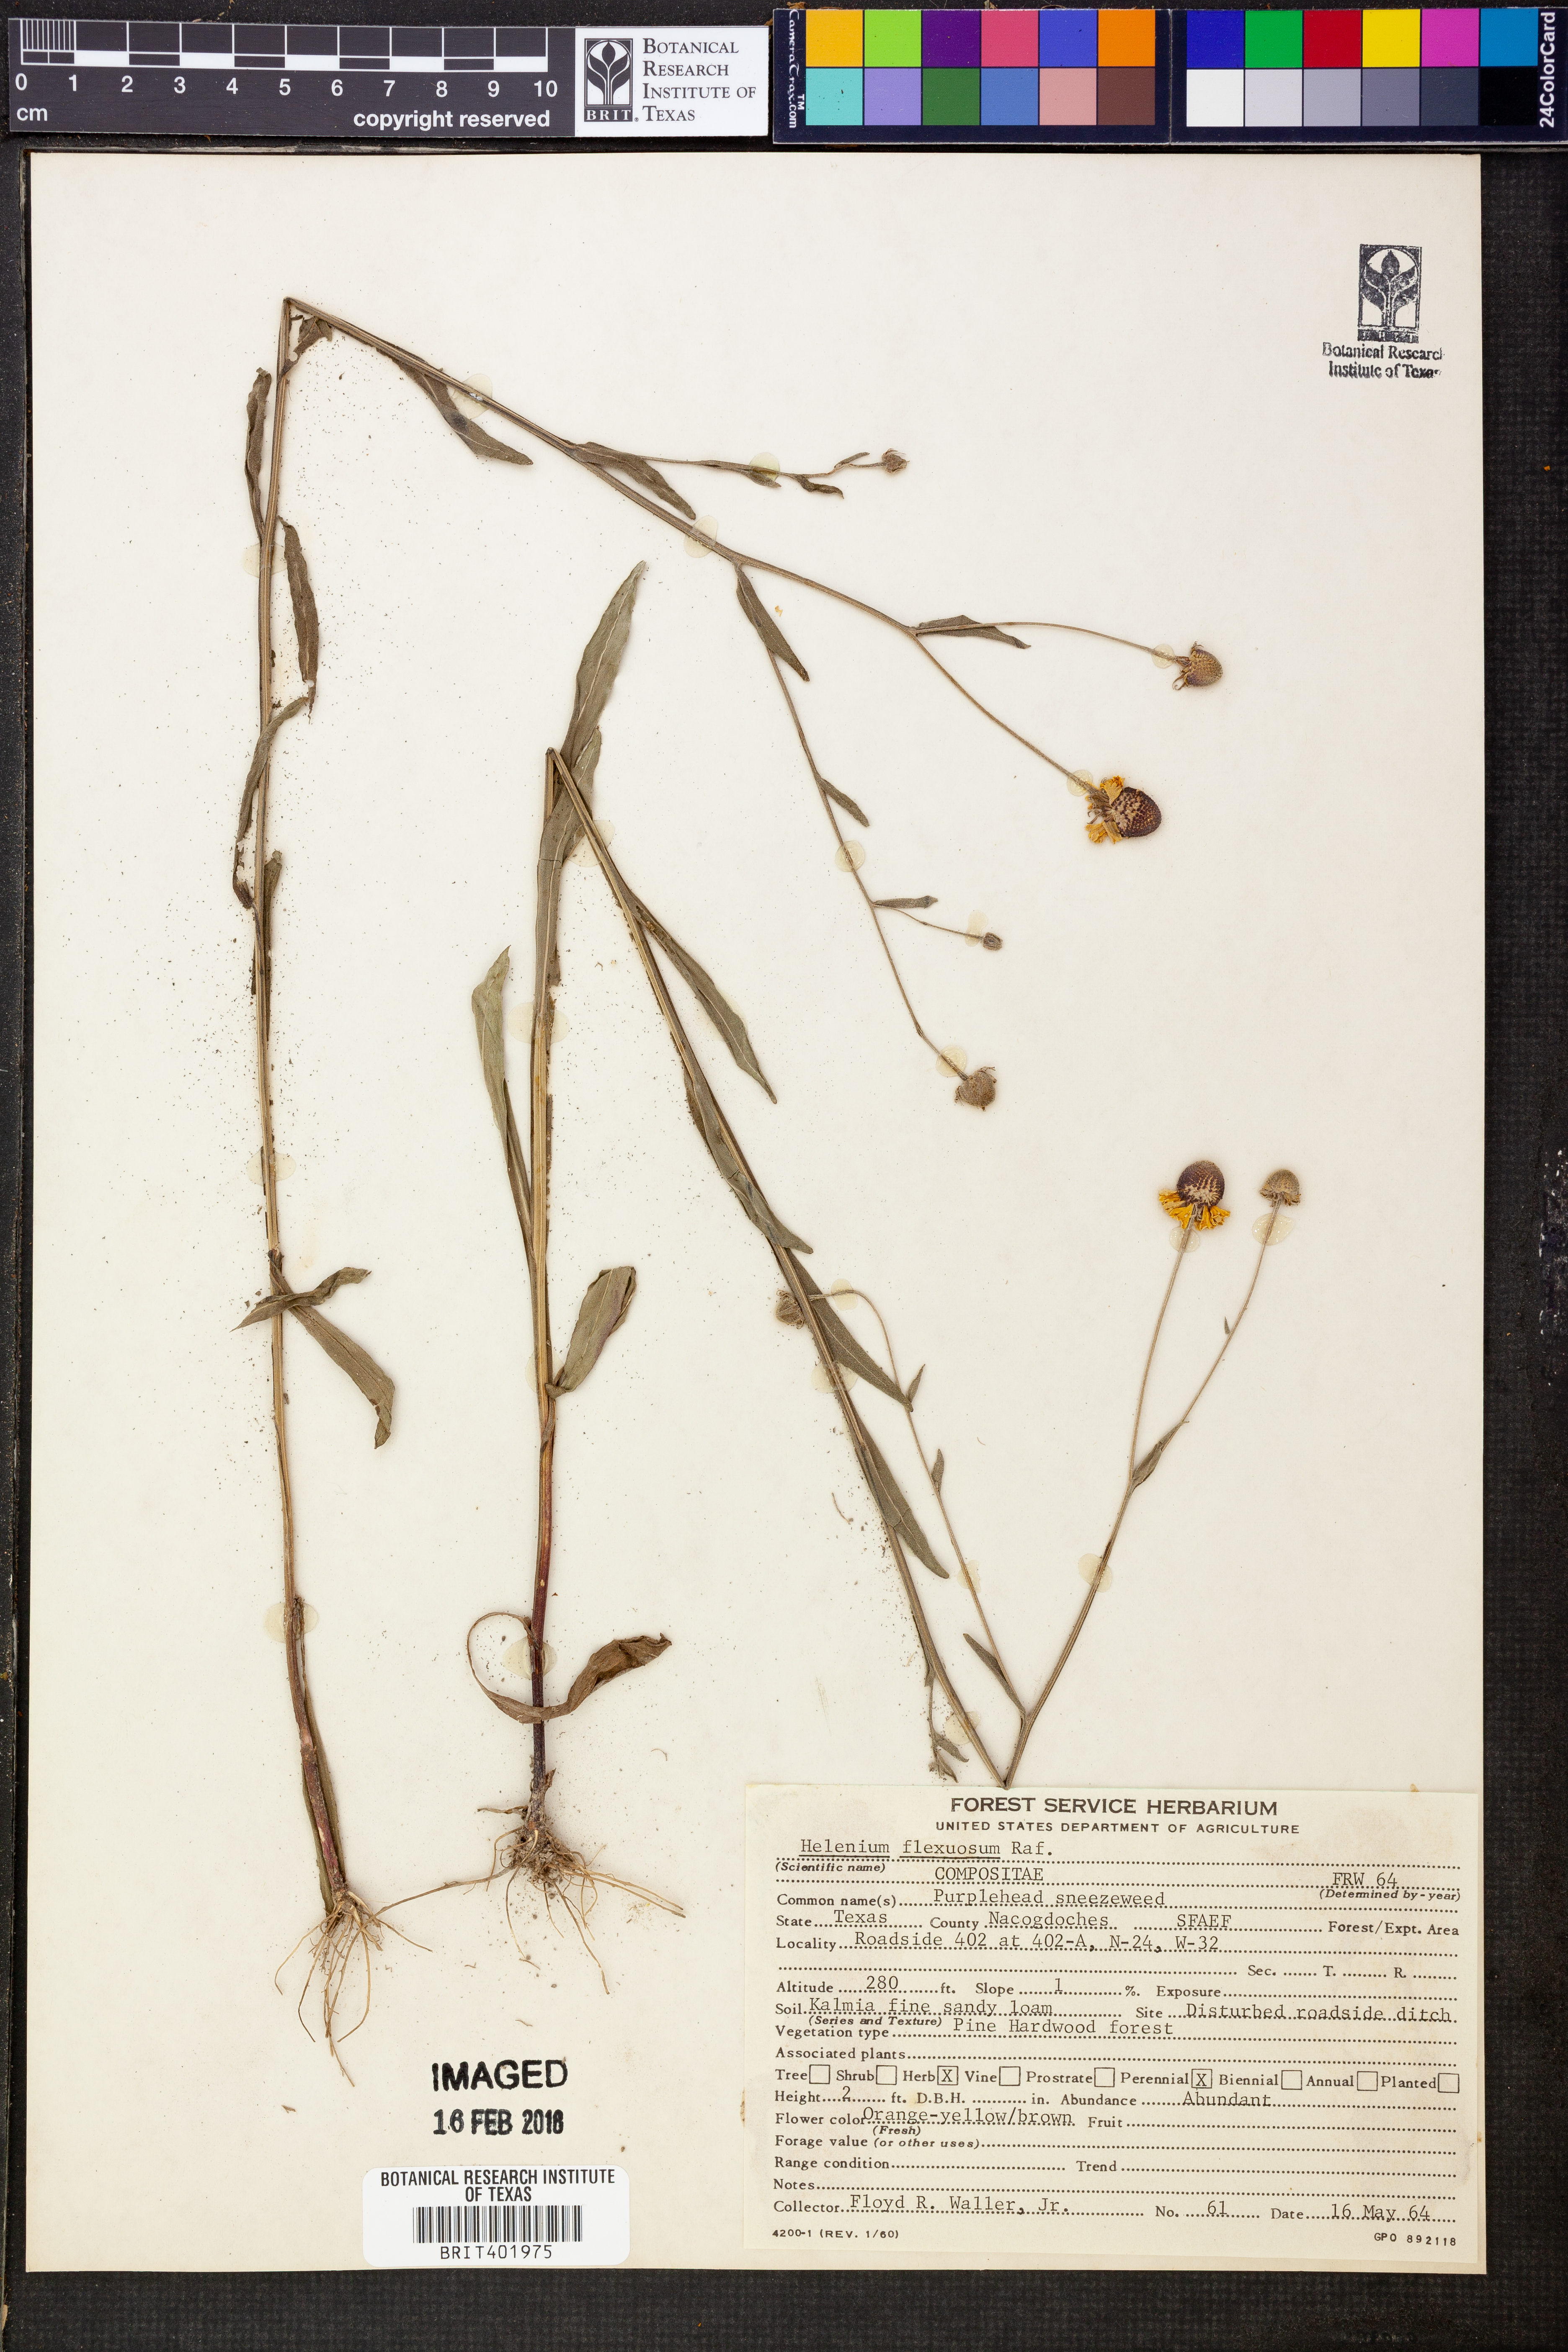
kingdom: Plantae
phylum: Tracheophyta
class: Magnoliopsida
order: Asterales
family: Asteraceae
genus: Helenium
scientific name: Helenium flexuosum
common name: Naked-flowered sneezeweed
